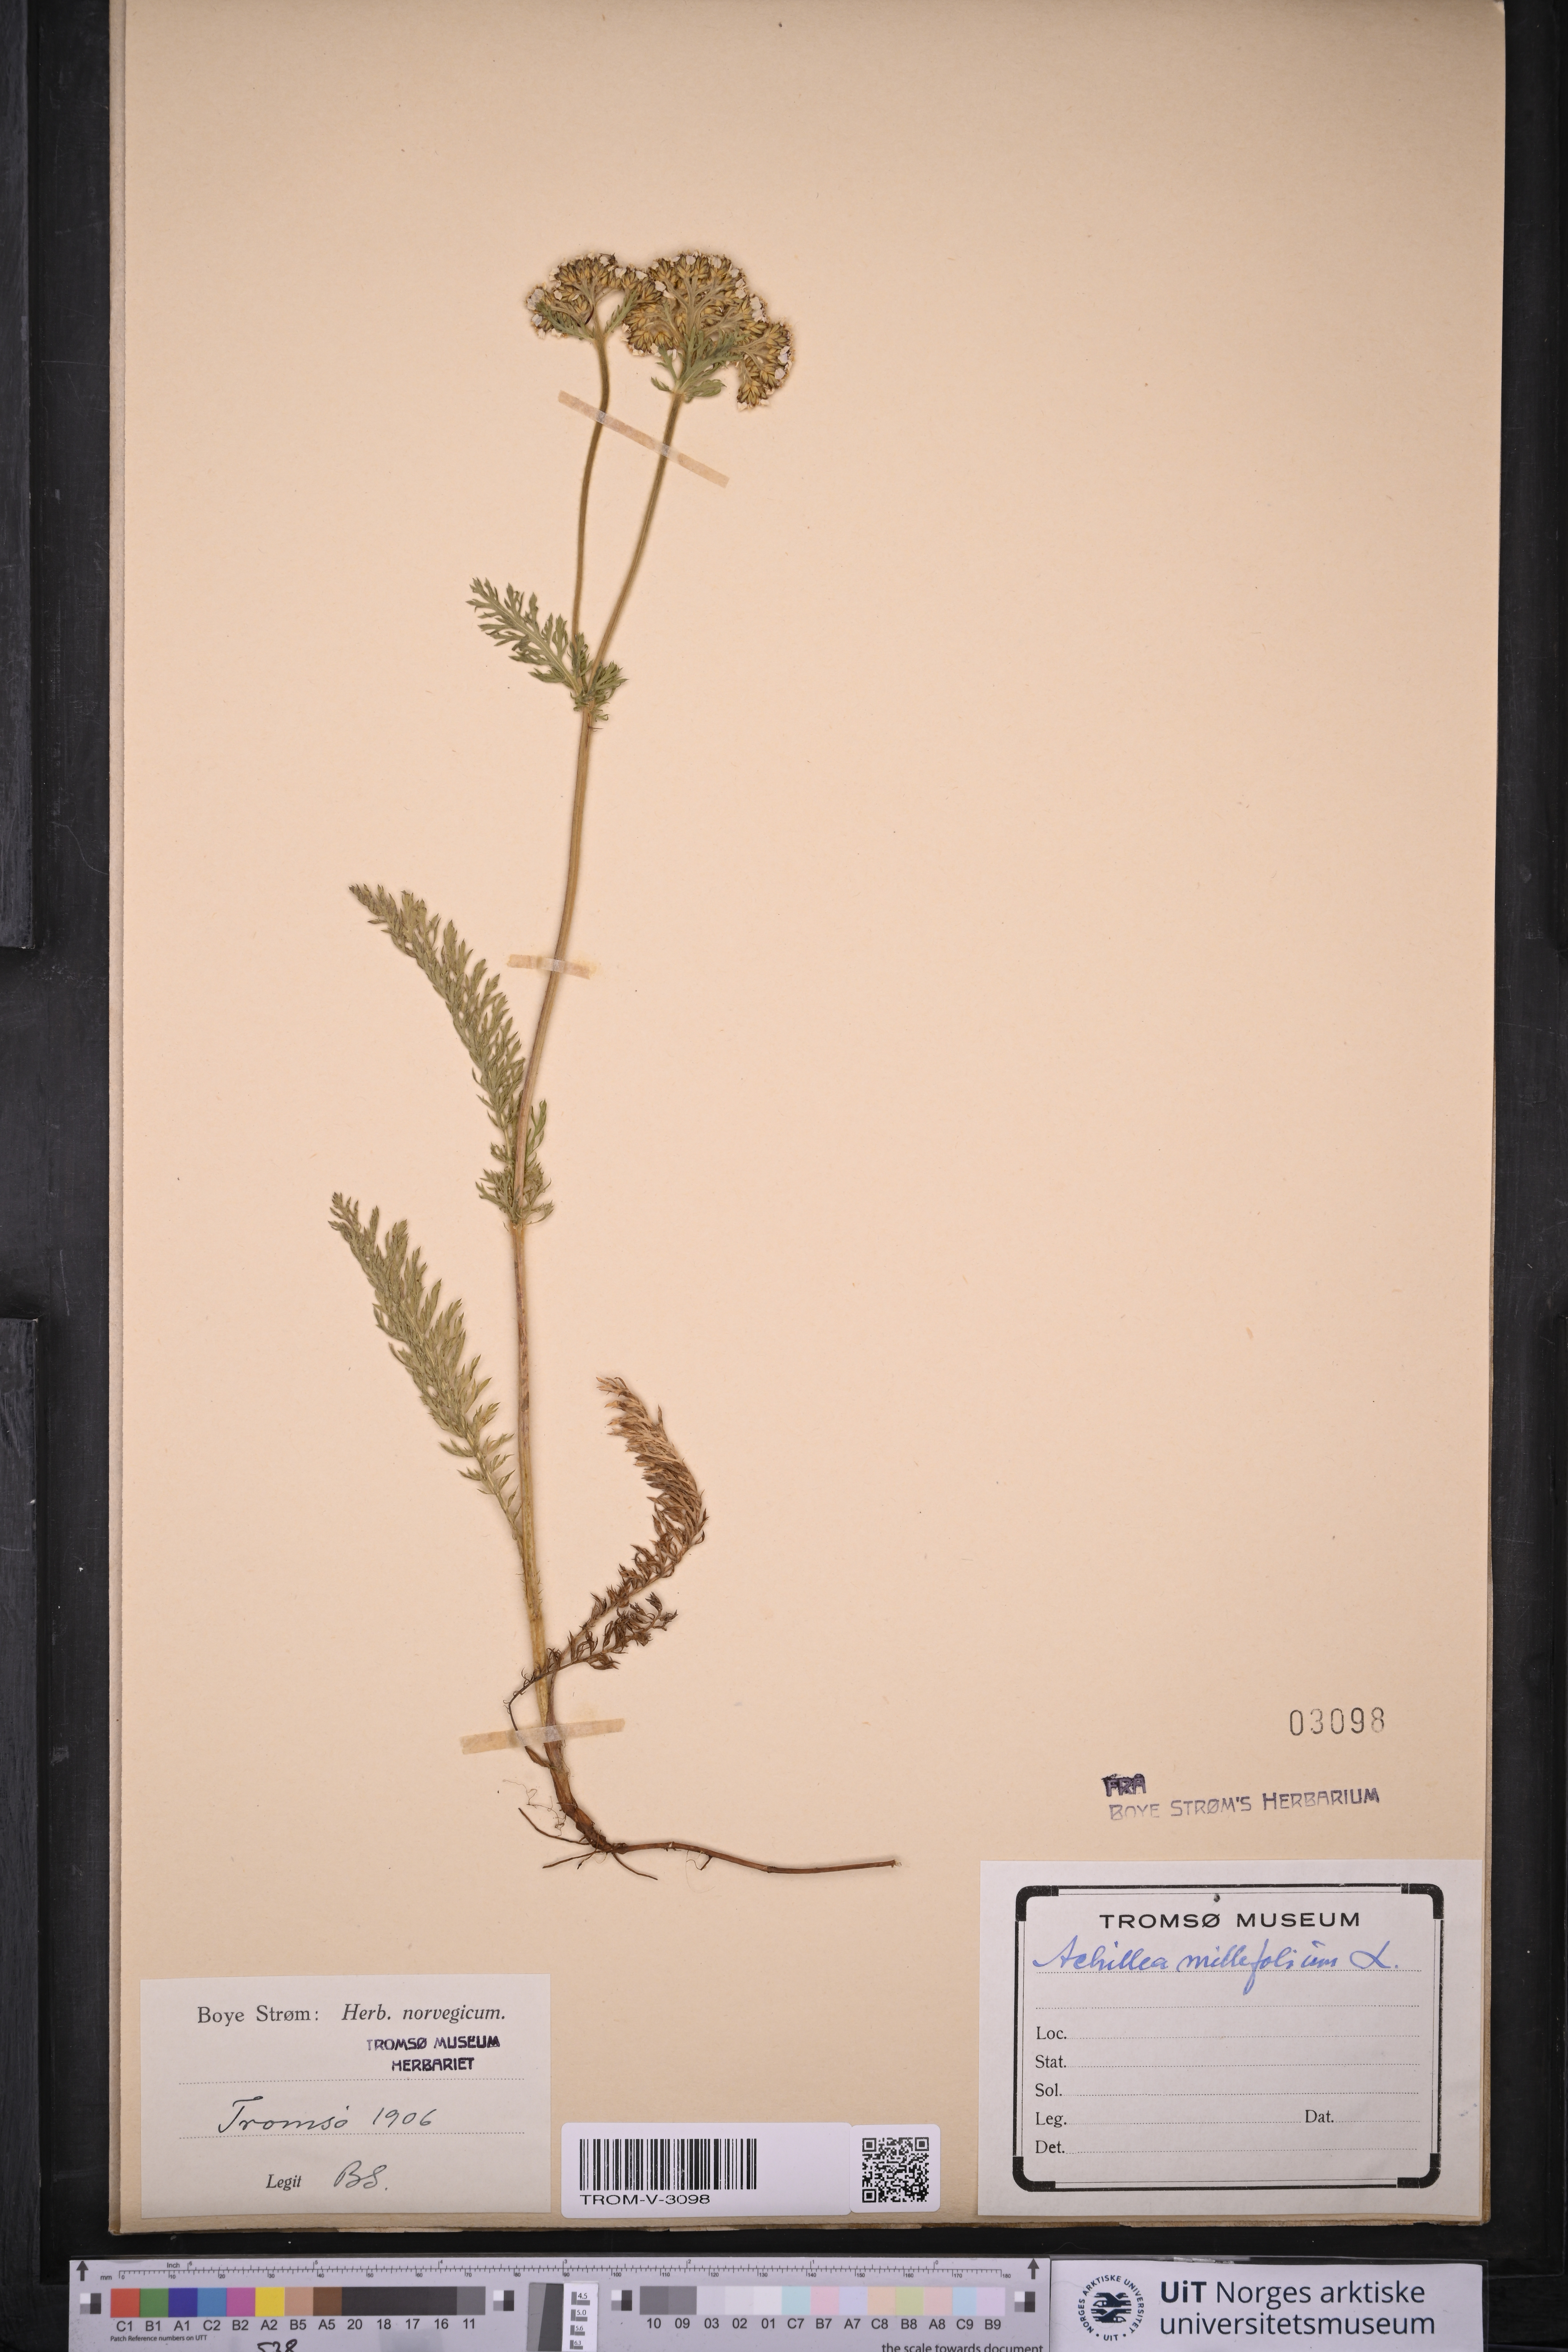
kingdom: Plantae
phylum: Tracheophyta
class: Magnoliopsida
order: Asterales
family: Asteraceae
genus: Achillea
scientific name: Achillea millefolium
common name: Yarrow
